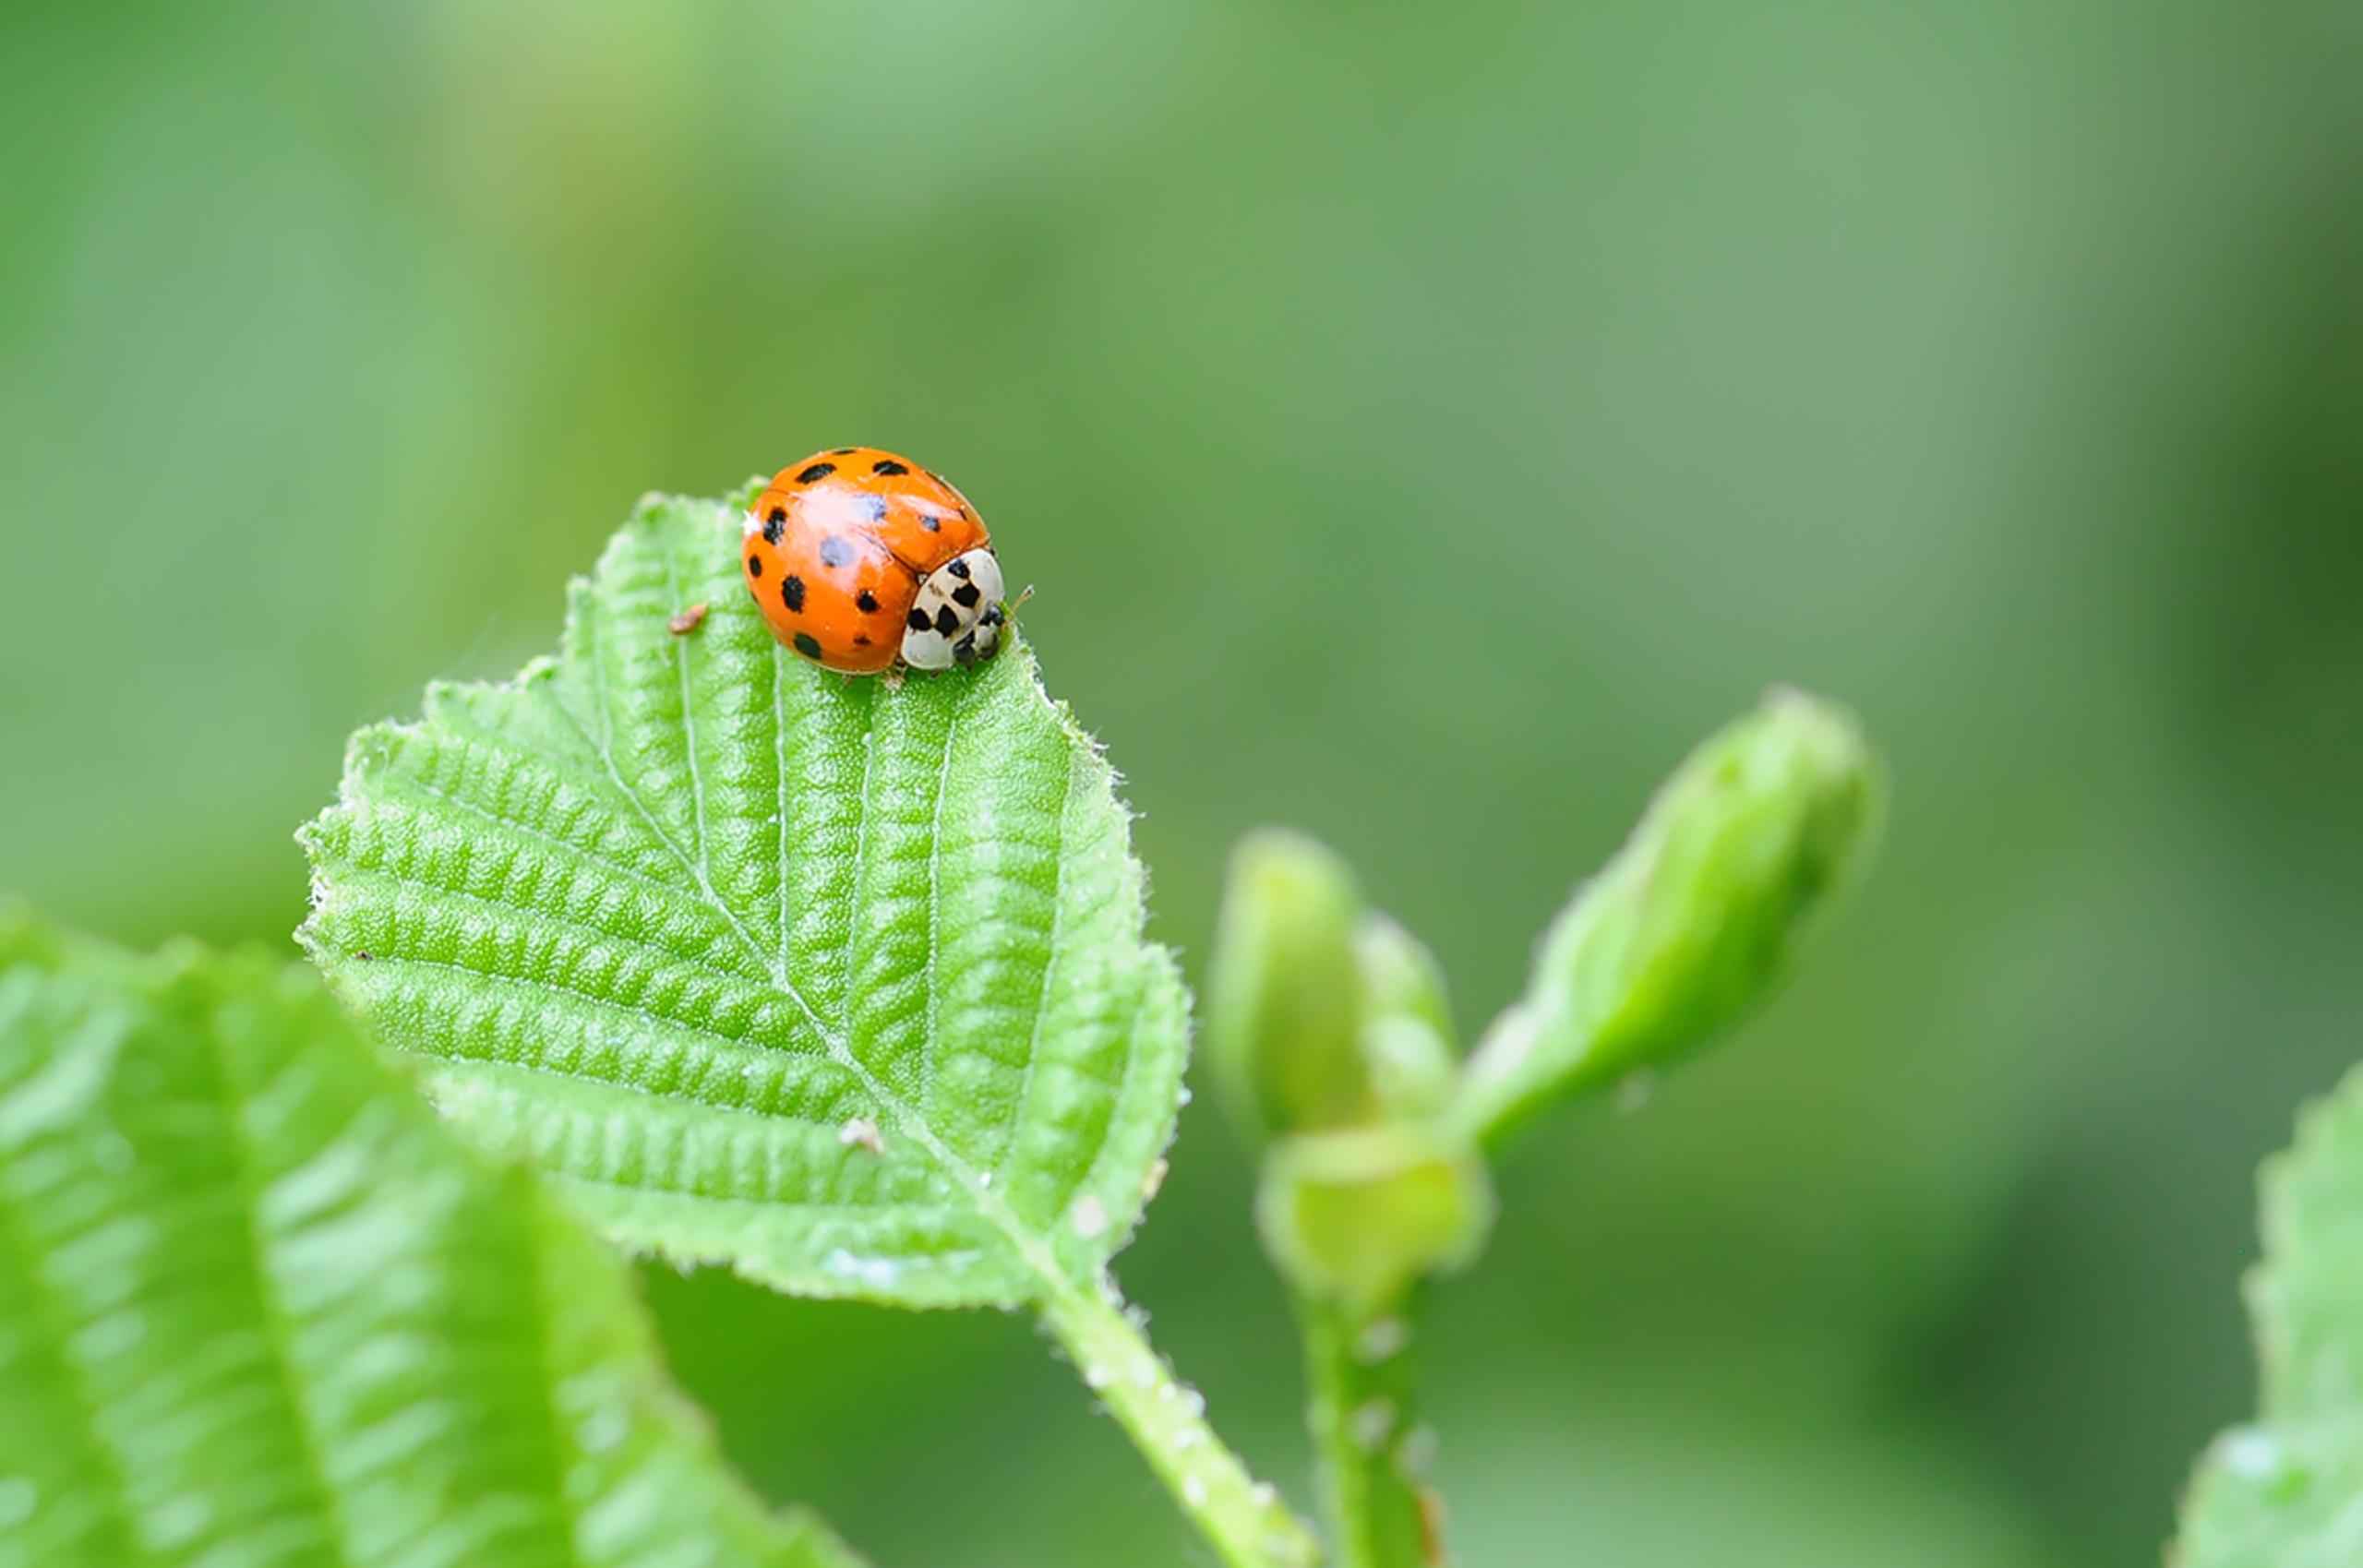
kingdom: Animalia
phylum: Arthropoda
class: Insecta
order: Coleoptera
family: Coccinellidae
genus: Harmonia
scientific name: Harmonia axyridis
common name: Harlekinmariehøne
